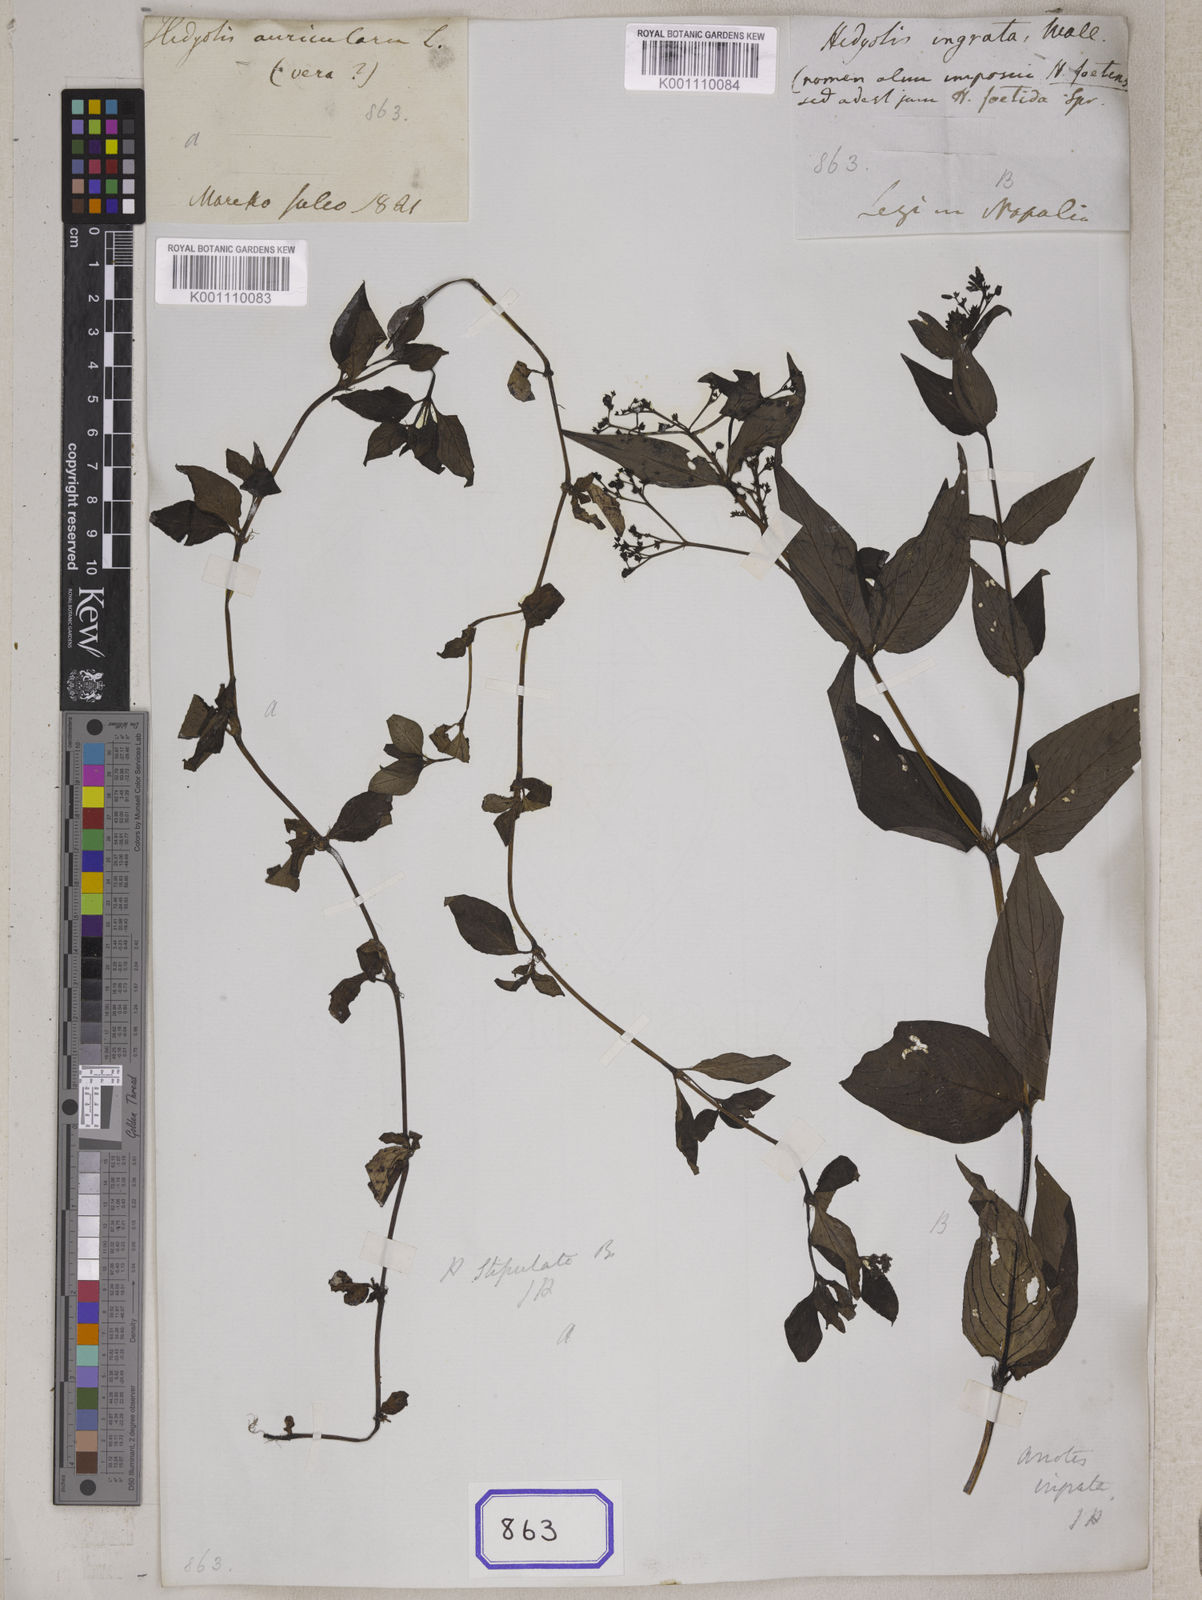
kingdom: Plantae
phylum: Tracheophyta
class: Magnoliopsida
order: Gentianales
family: Rubiaceae
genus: Neanotis
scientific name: Neanotis ingrata
